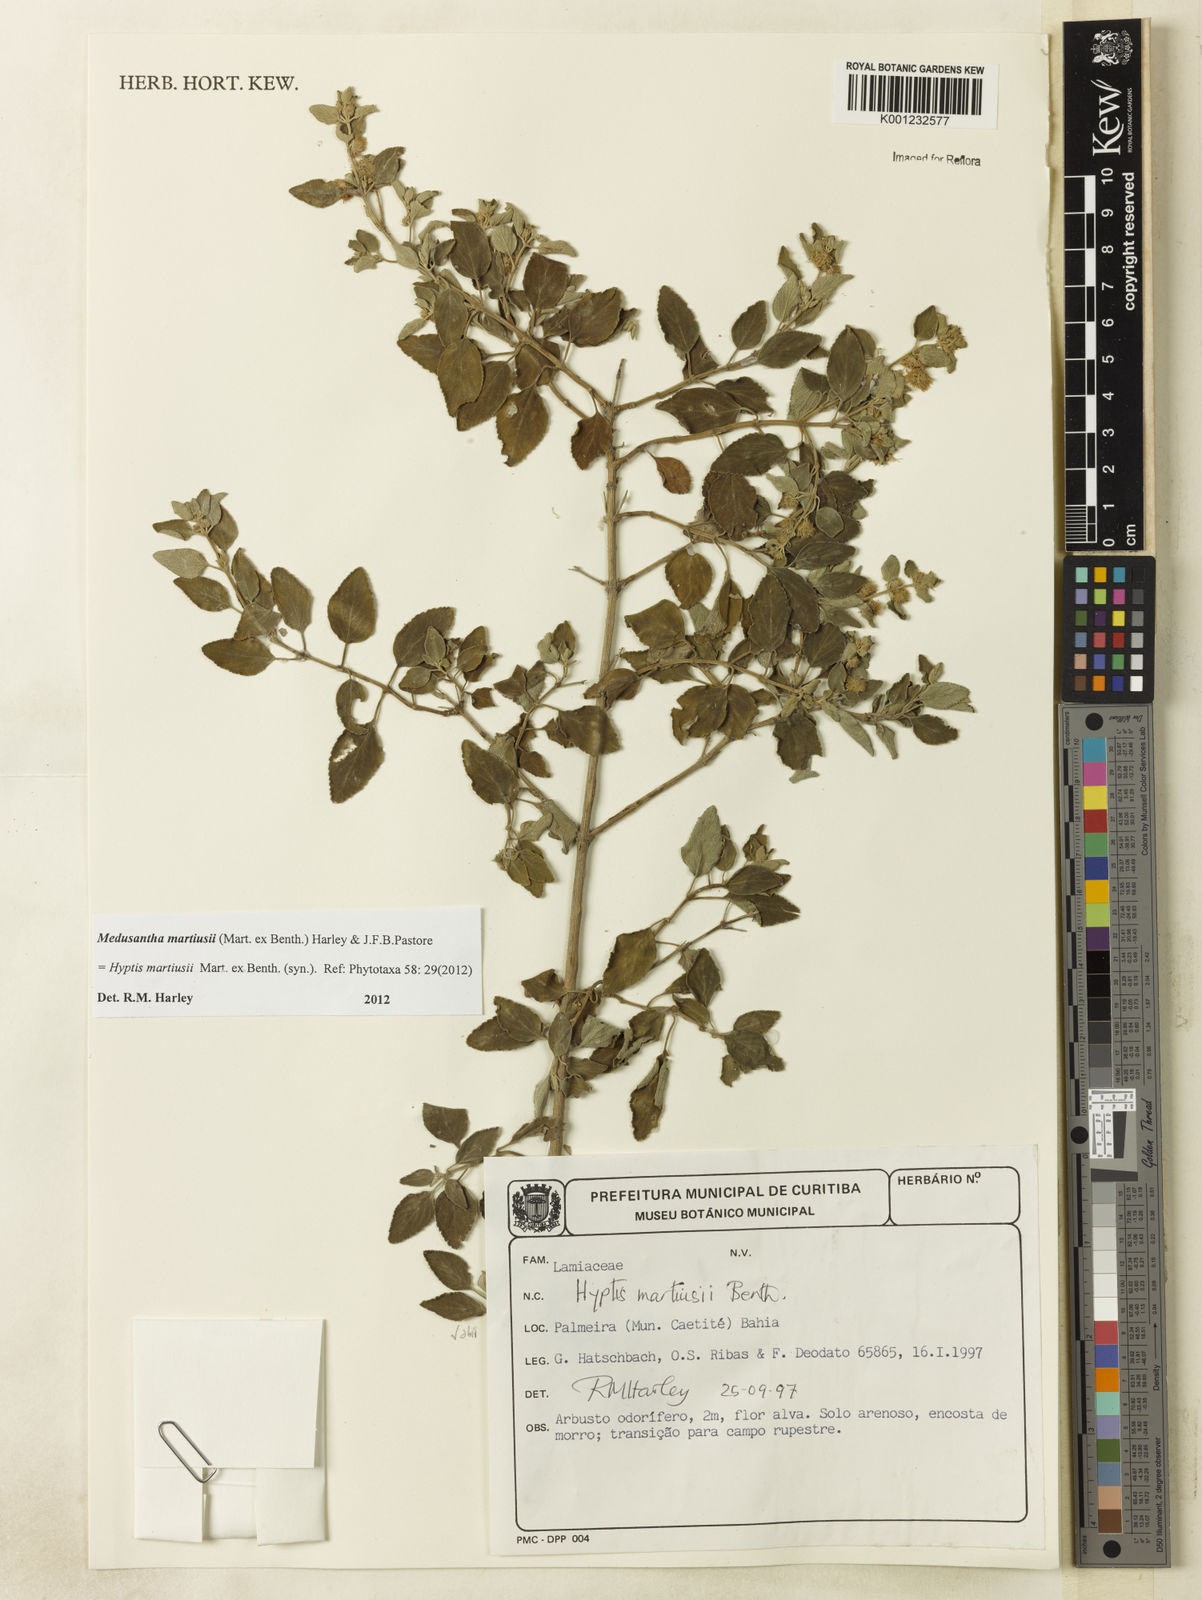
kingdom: Plantae
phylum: Tracheophyta
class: Magnoliopsida
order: Lamiales
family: Lamiaceae
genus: Medusantha
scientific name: Medusantha martiusii
